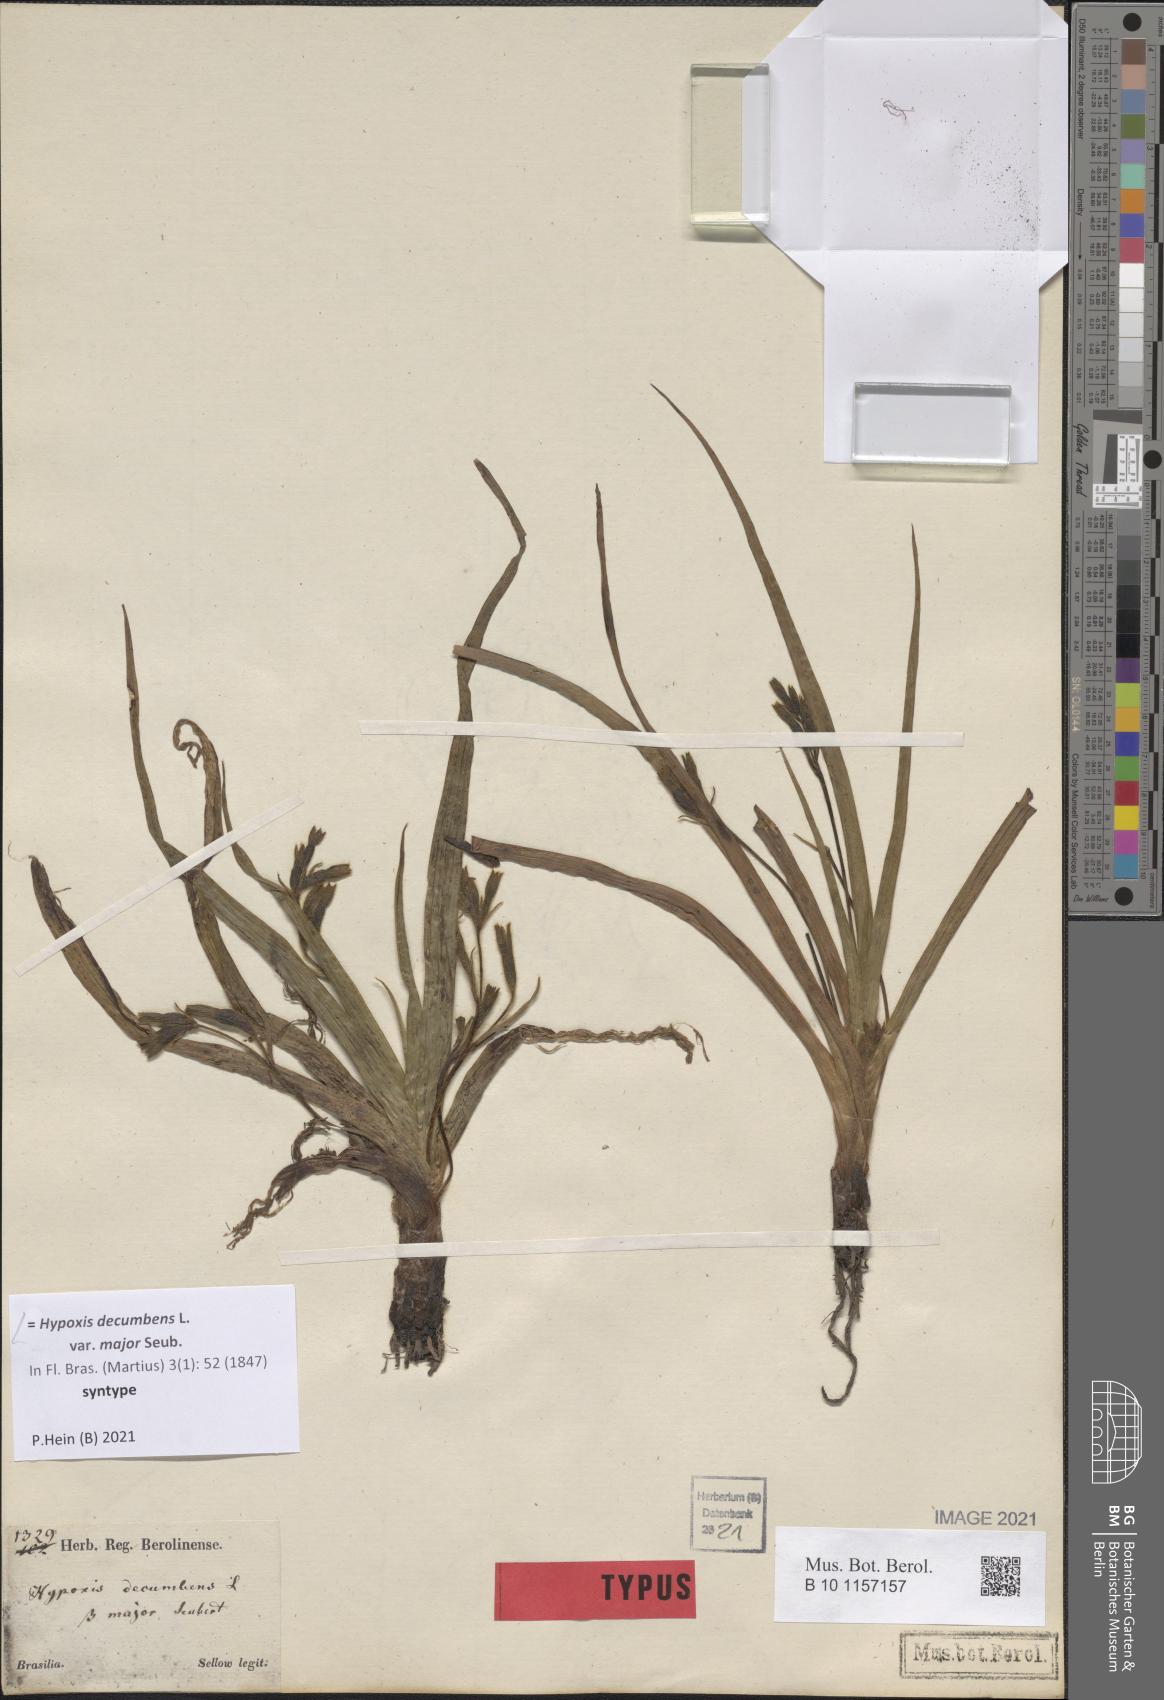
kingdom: Plantae
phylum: Tracheophyta
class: Liliopsida
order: Asparagales
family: Hypoxidaceae
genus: Hypoxis
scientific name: Hypoxis decumbens
